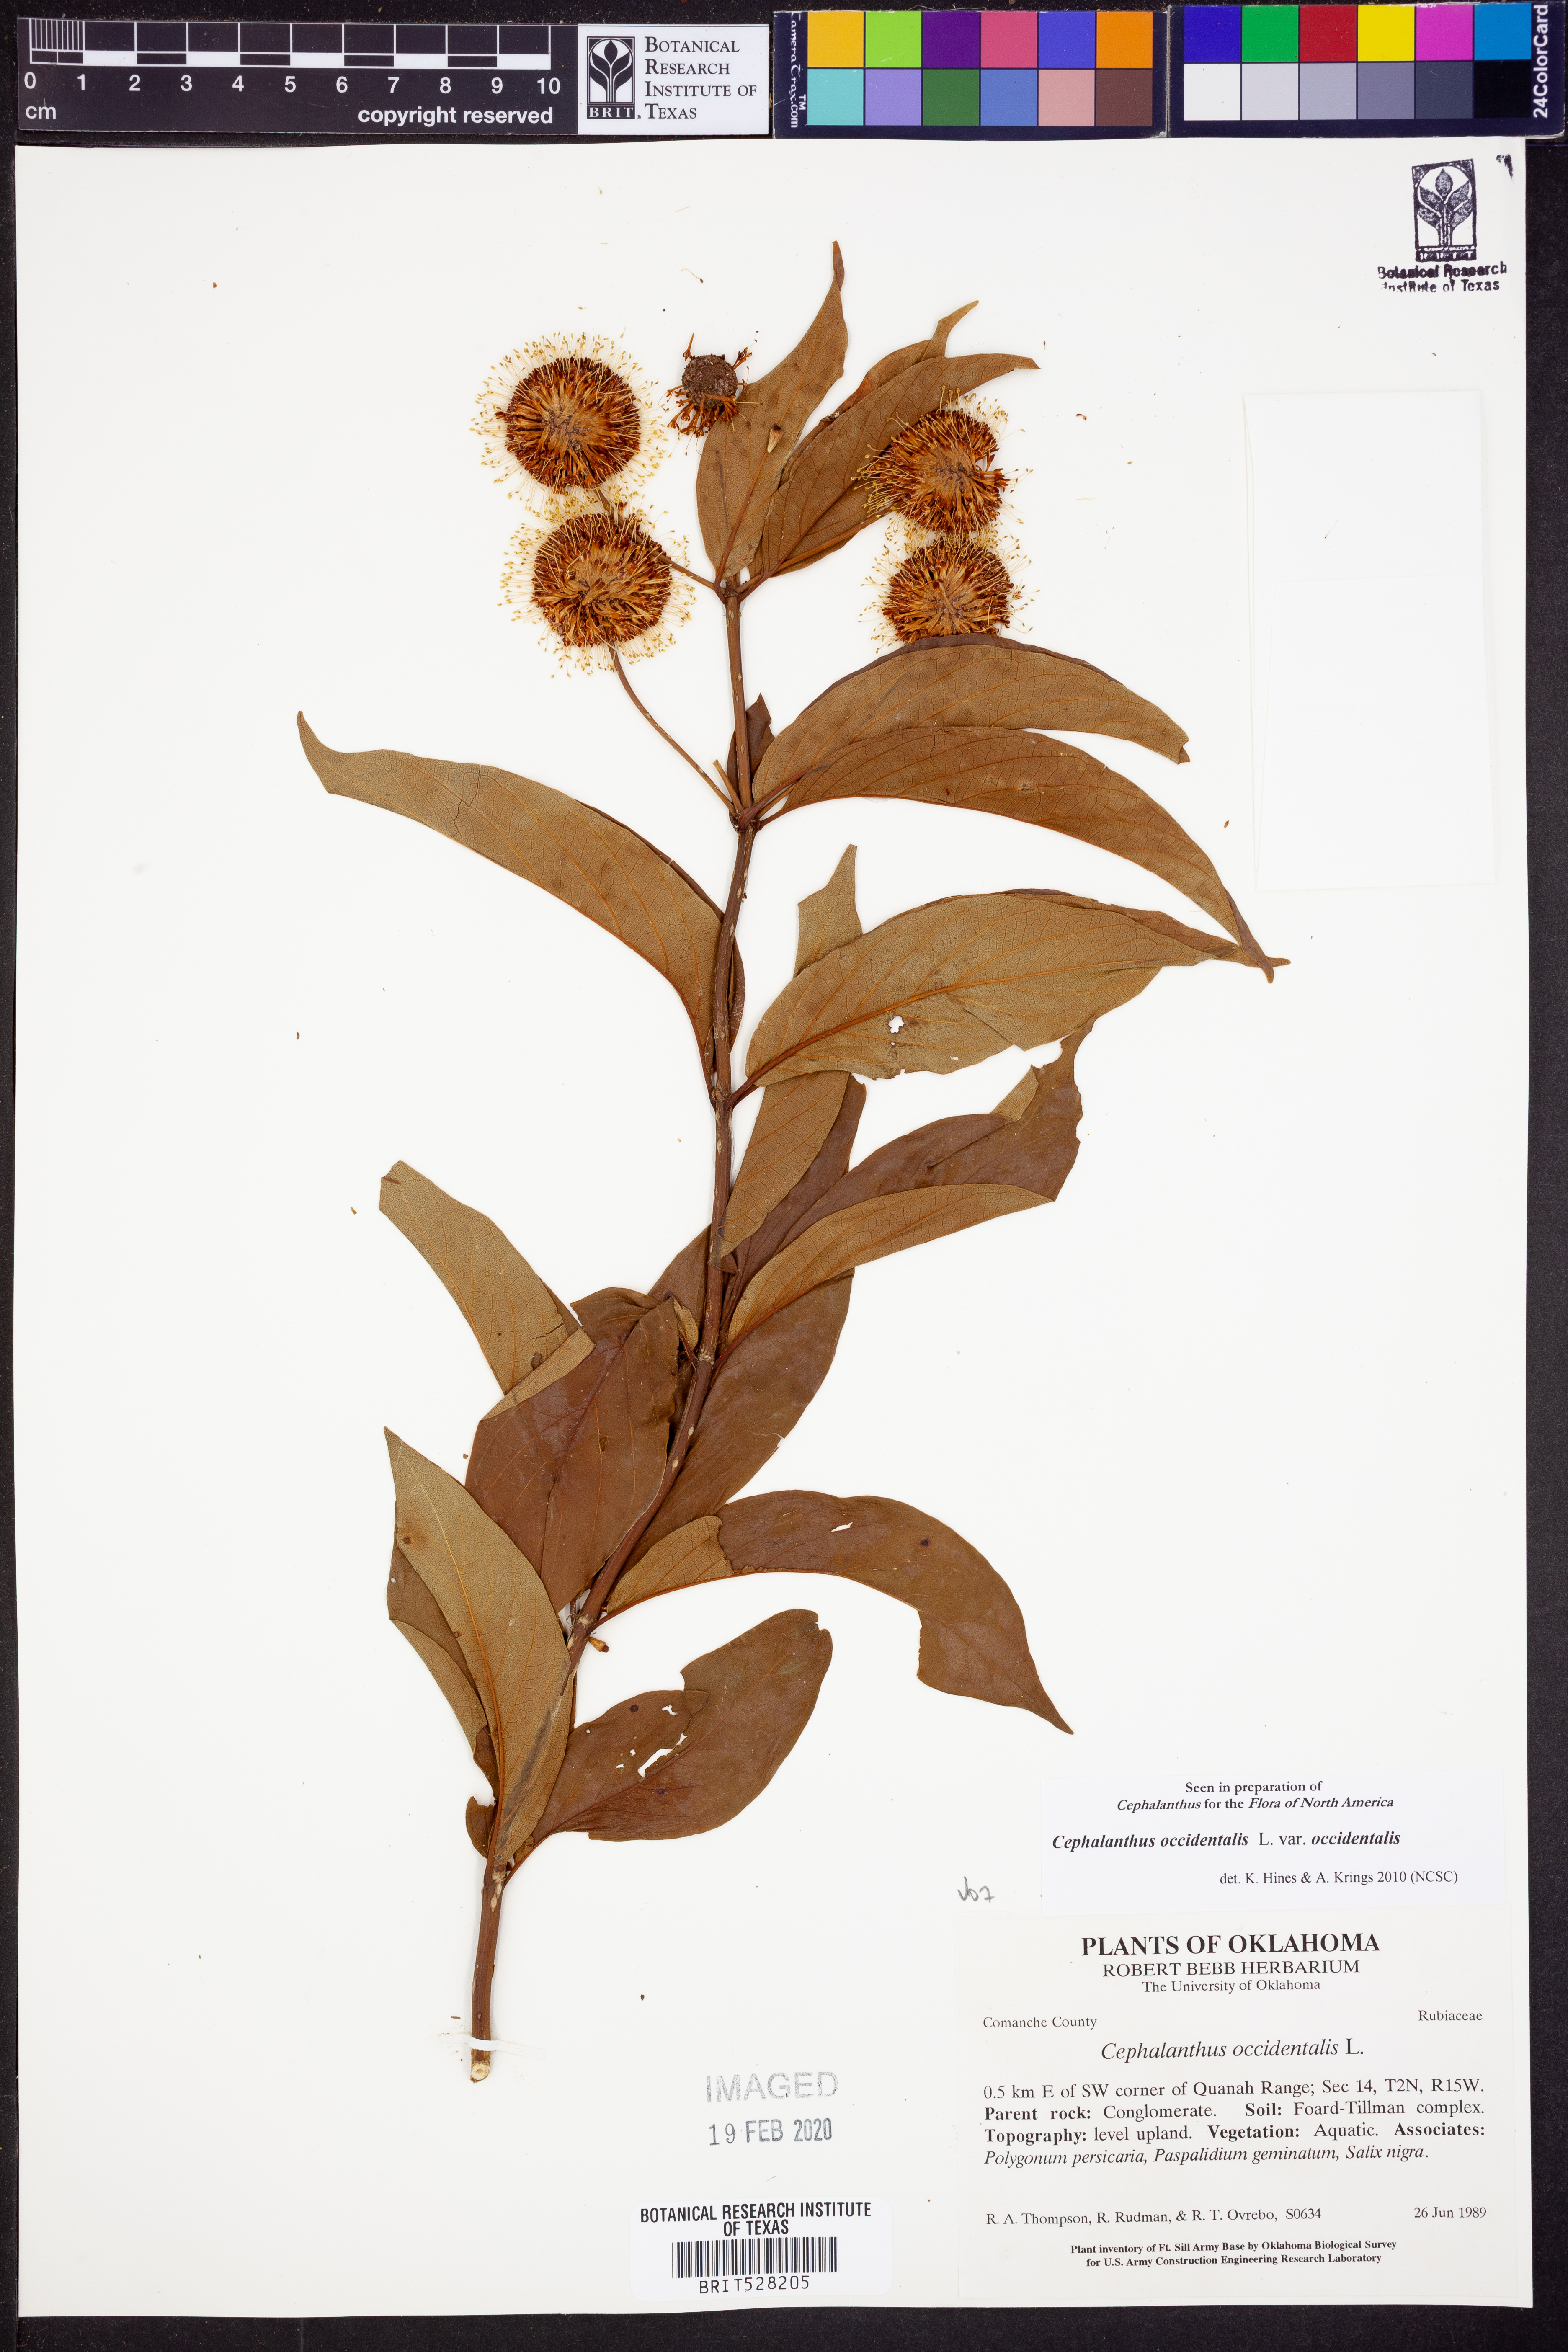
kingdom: Plantae
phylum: Tracheophyta
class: Magnoliopsida
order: Gentianales
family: Rubiaceae
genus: Cephalanthus
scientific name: Cephalanthus occidentalis
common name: Button-willow
